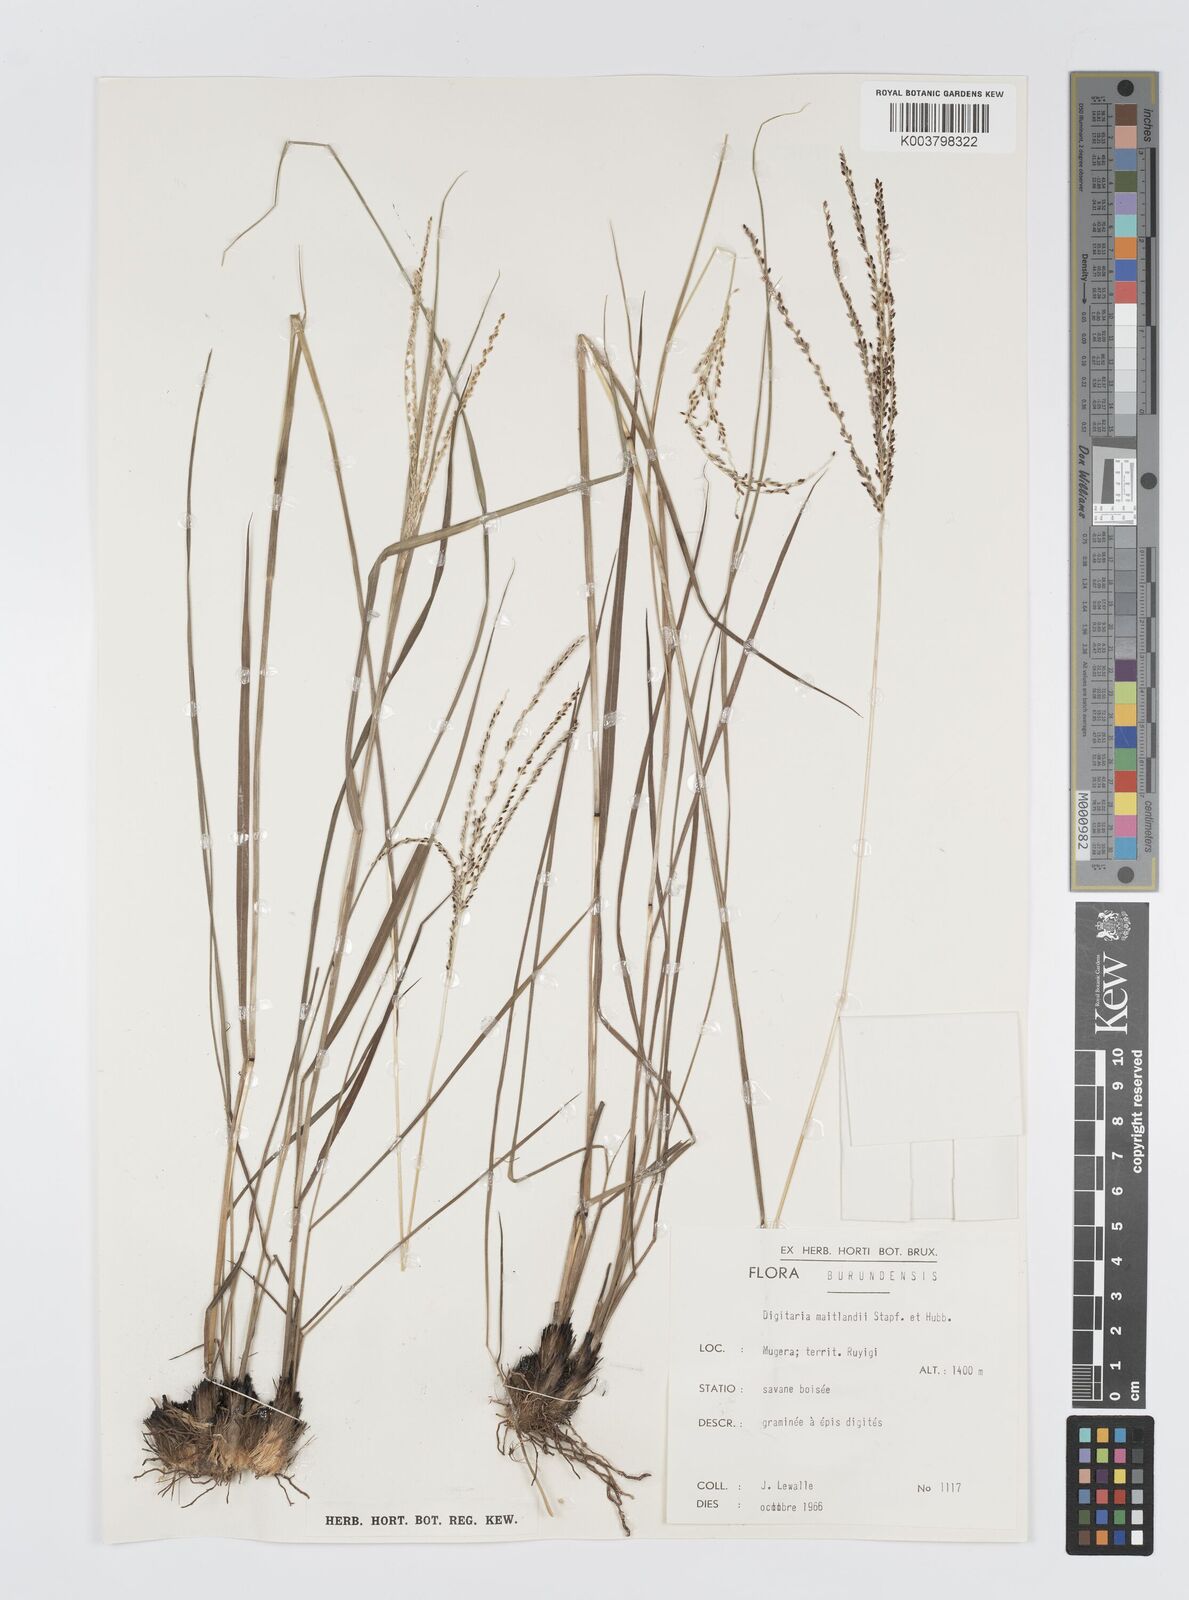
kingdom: Plantae
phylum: Tracheophyta
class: Liliopsida
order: Poales
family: Poaceae
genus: Digitaria
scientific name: Digitaria maitlandii
